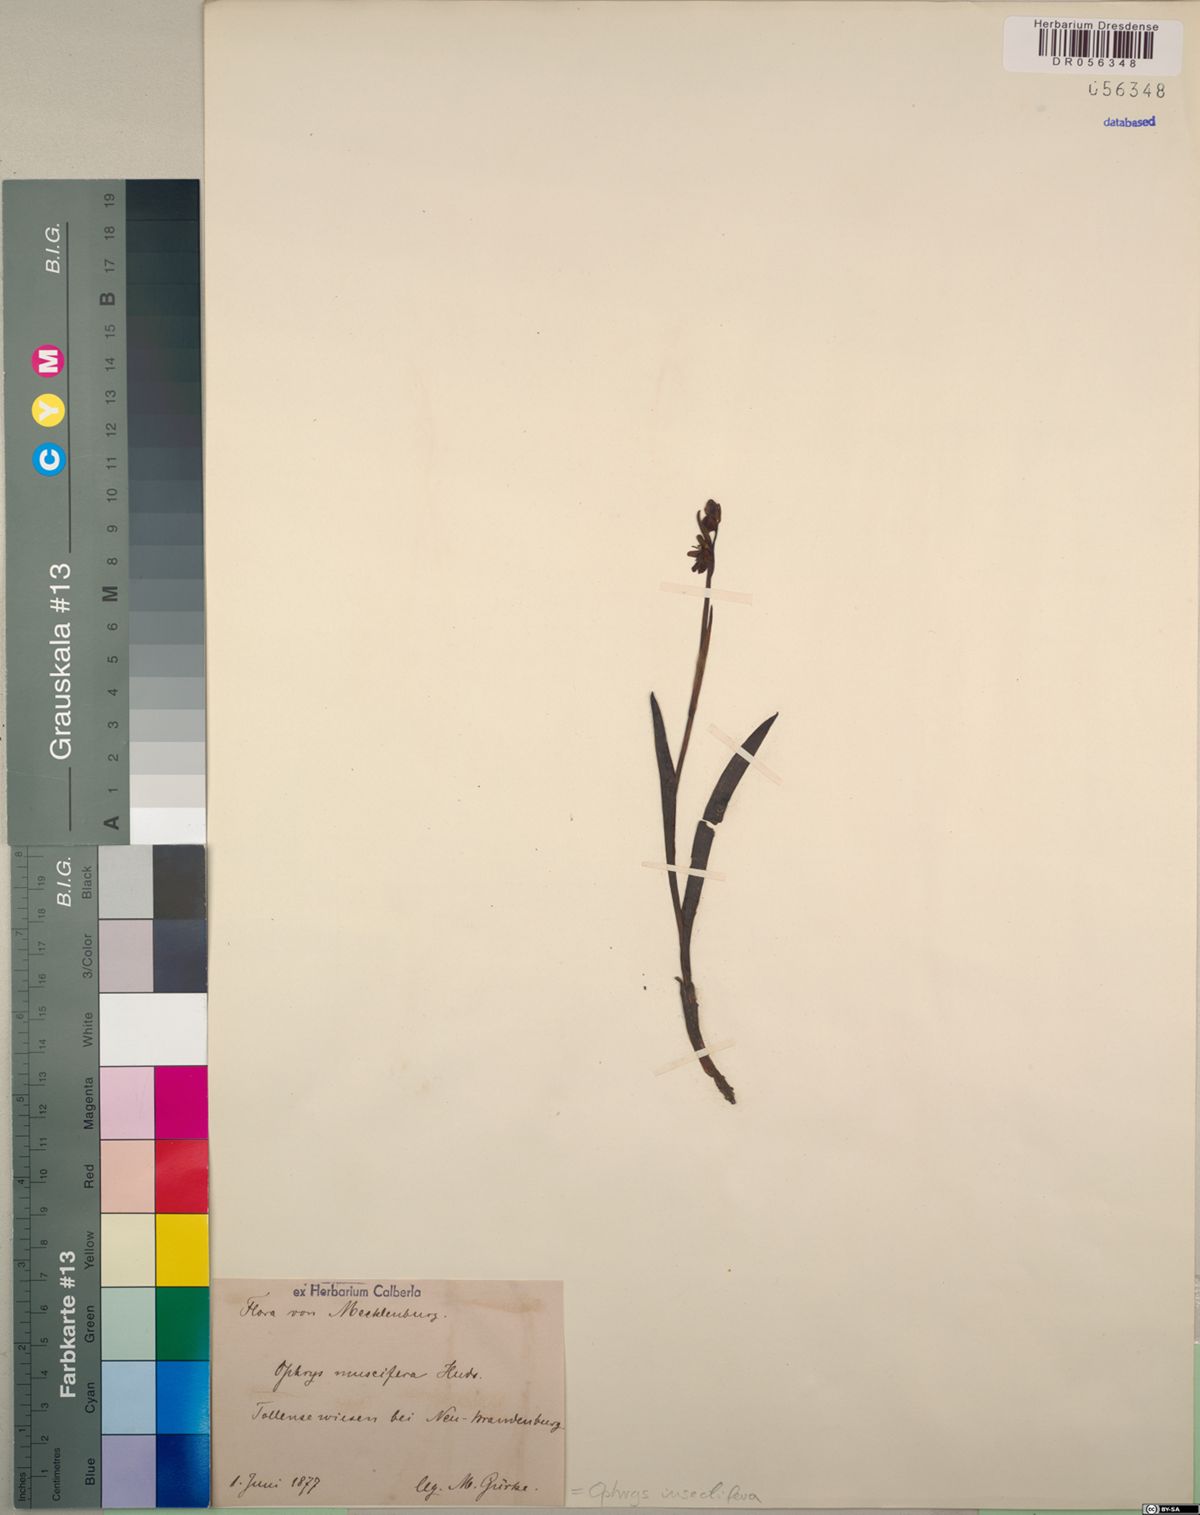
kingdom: Plantae
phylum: Tracheophyta
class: Liliopsida
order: Asparagales
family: Orchidaceae
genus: Ophrys
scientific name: Ophrys insectifera
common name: Fly orchid
